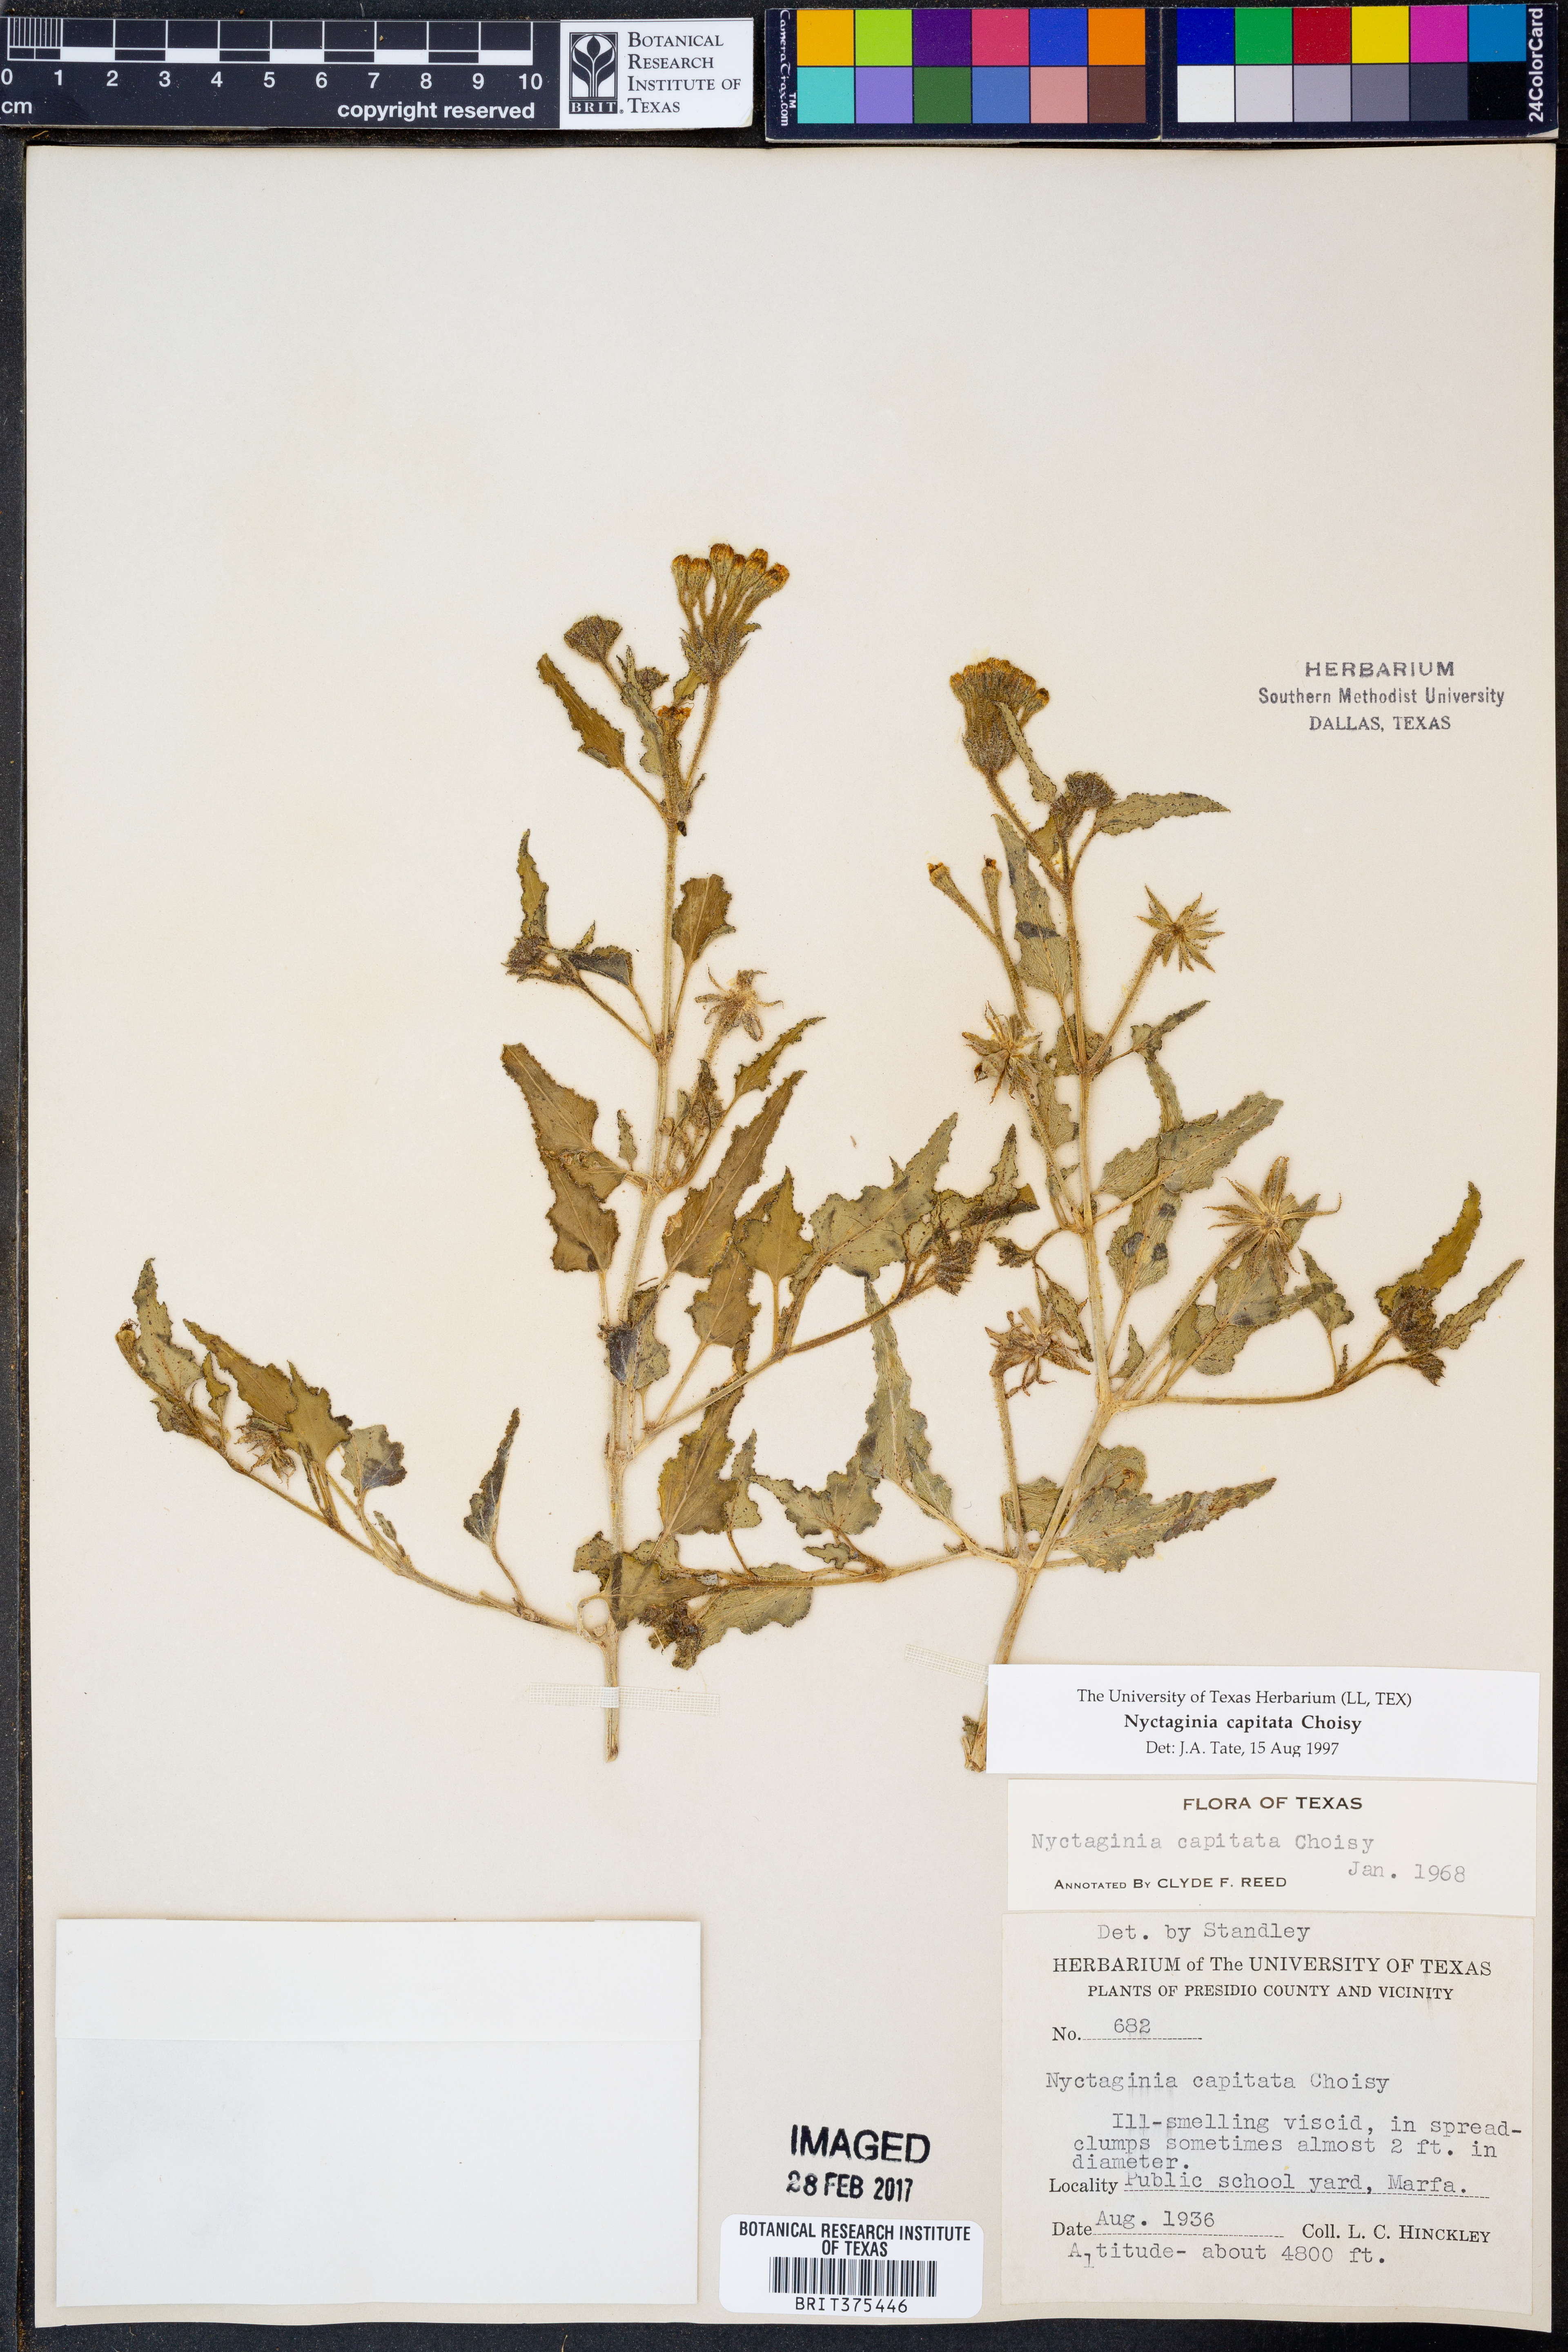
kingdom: Plantae
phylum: Tracheophyta
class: Magnoliopsida
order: Caryophyllales
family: Nyctaginaceae
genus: Nyctaginia
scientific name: Nyctaginia capitata
